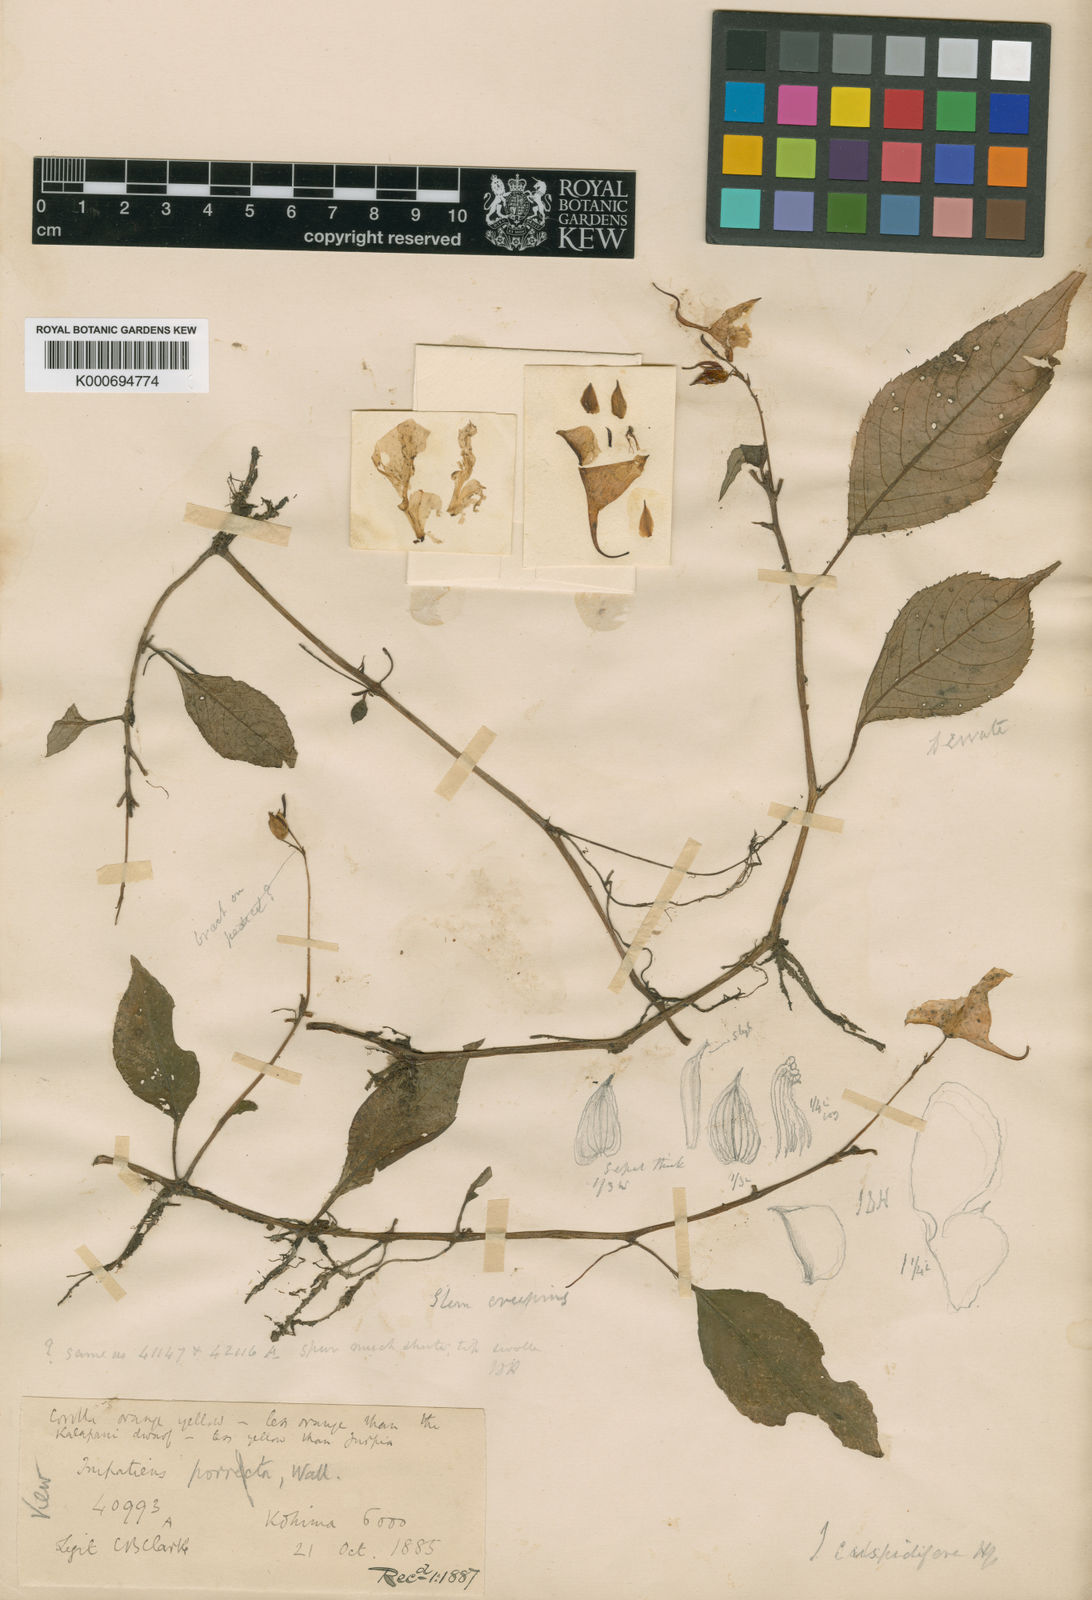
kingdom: Plantae
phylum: Tracheophyta
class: Magnoliopsida
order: Ericales
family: Balsaminaceae
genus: Impatiens
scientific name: Impatiens pulchra
